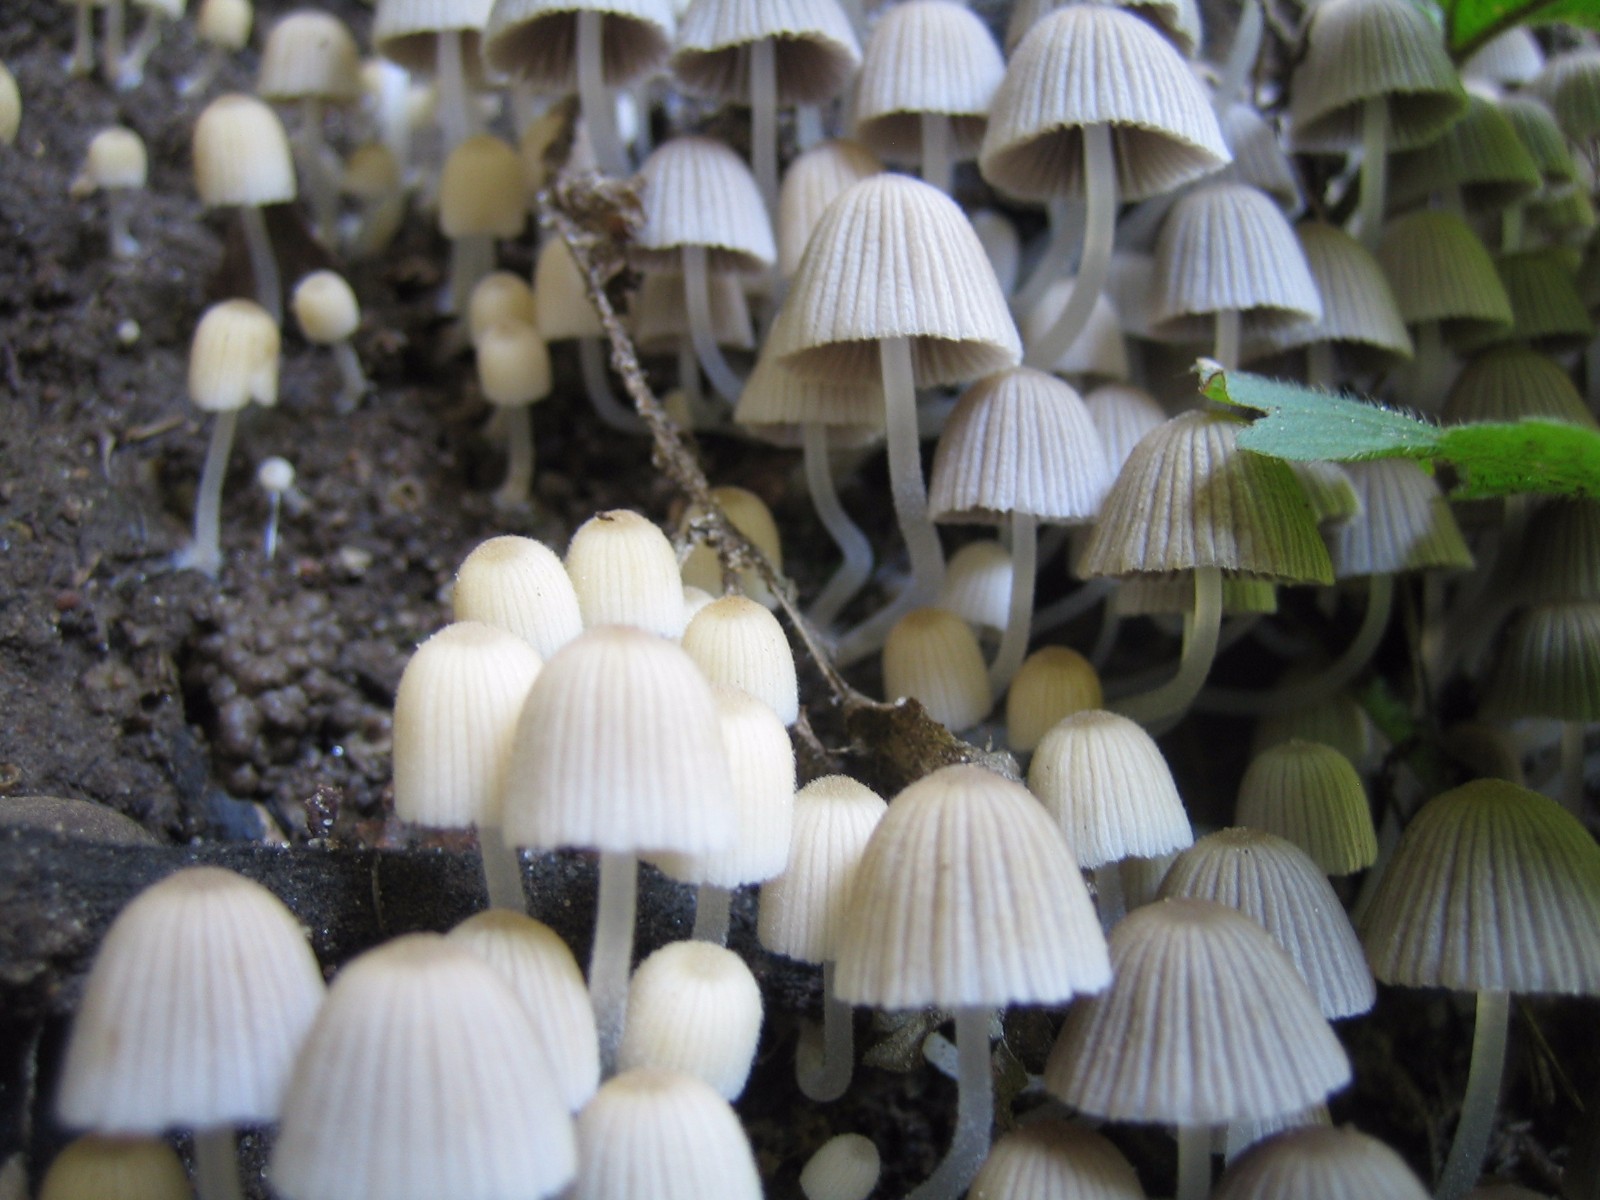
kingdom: Fungi
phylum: Basidiomycota
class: Agaricomycetes
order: Agaricales
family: Psathyrellaceae
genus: Coprinellus
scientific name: Coprinellus disseminatus
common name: bredsået blækhat
